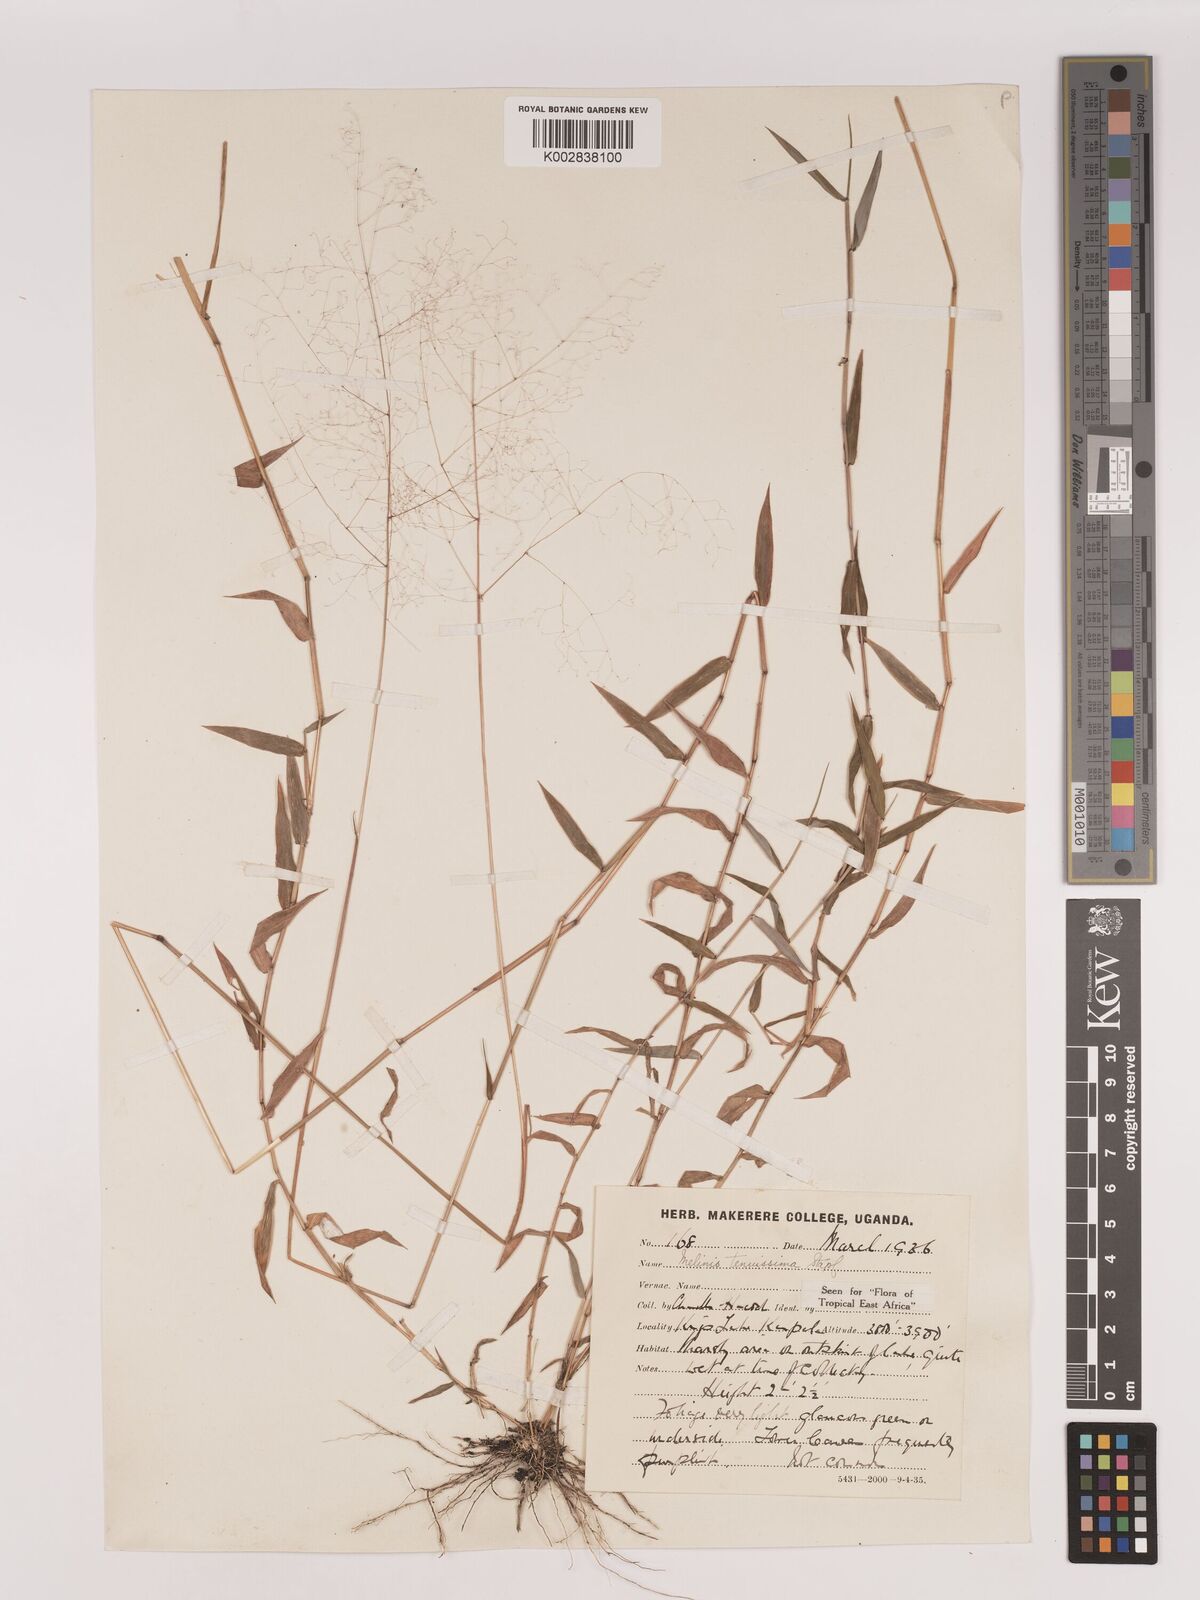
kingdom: Plantae
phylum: Tracheophyta
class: Liliopsida
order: Poales
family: Poaceae
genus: Melinis
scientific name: Melinis tenuissima
